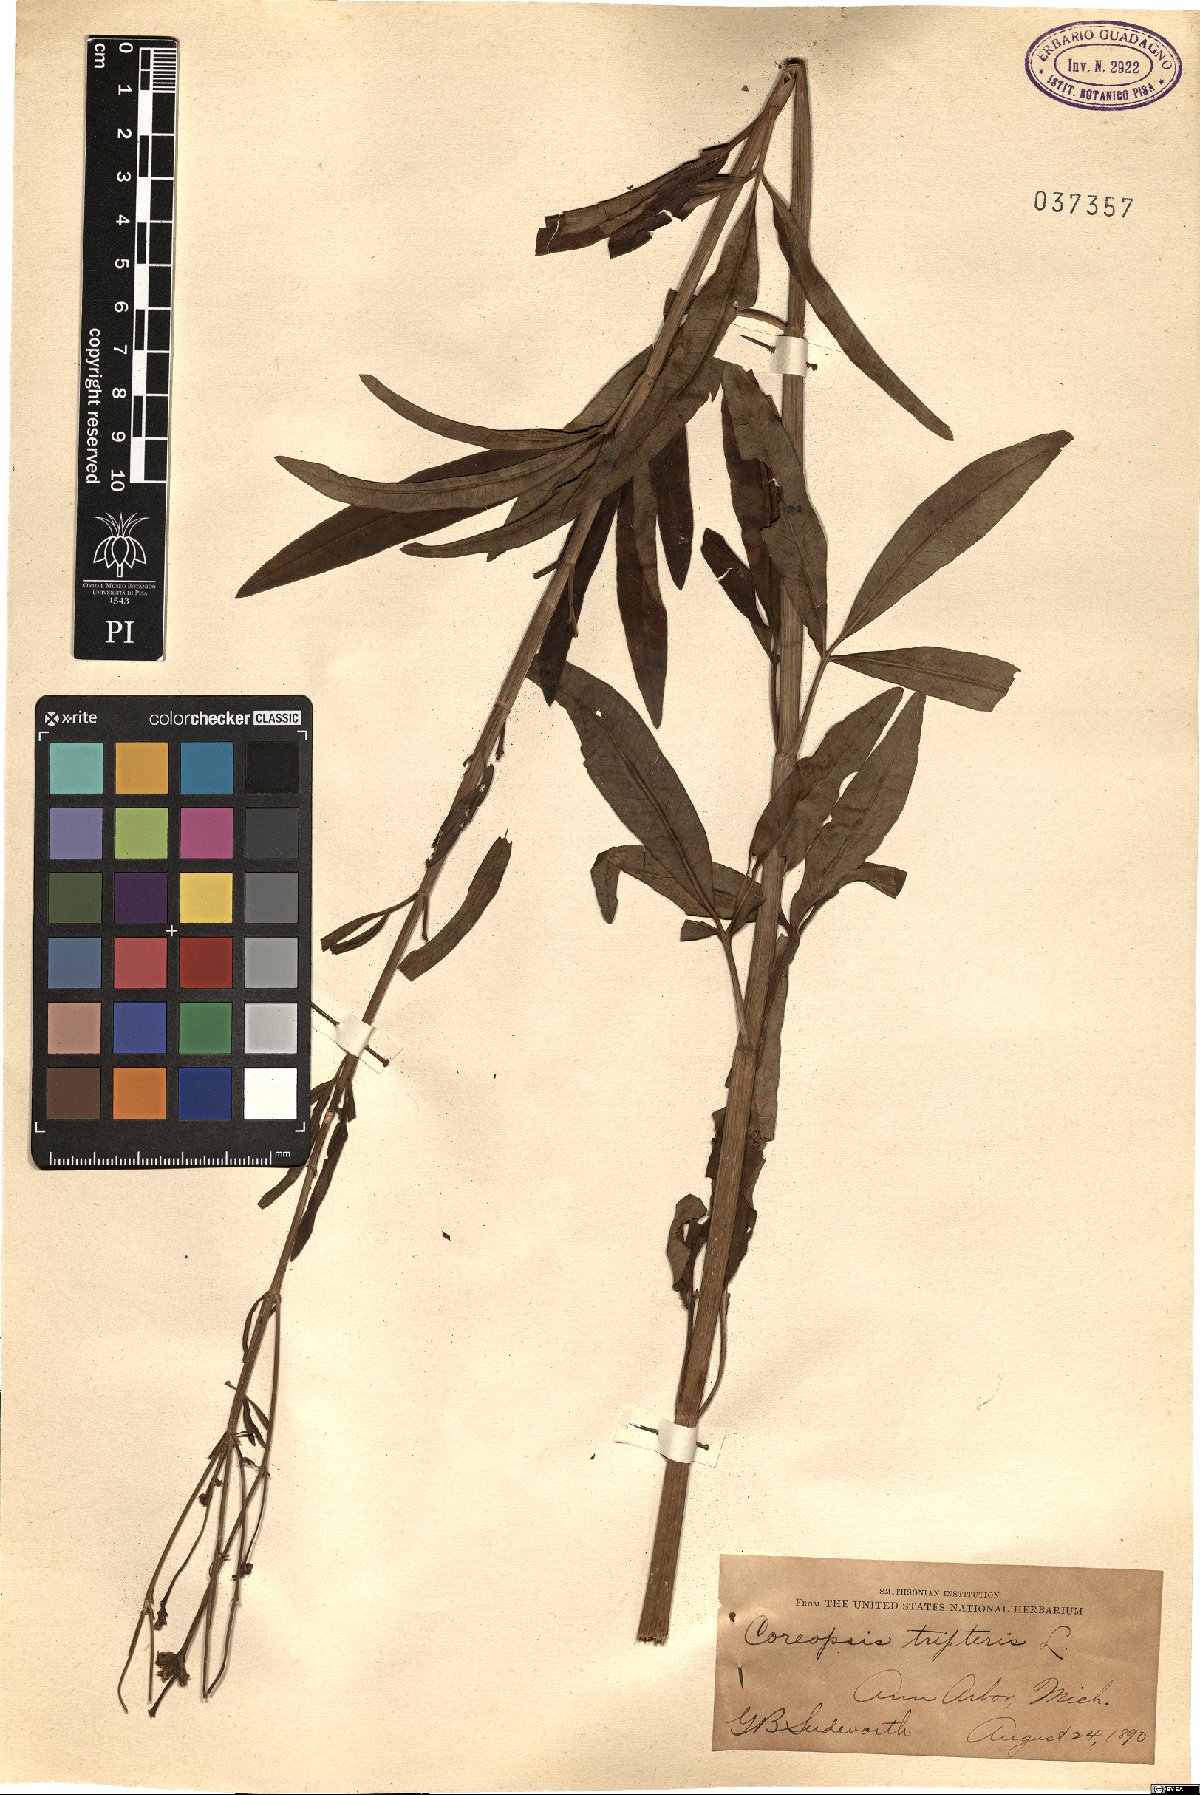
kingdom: Plantae
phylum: Tracheophyta
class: Magnoliopsida
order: Asterales
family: Asteraceae
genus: Coreopsis
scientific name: Coreopsis tripteris
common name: Tall coreopsis
